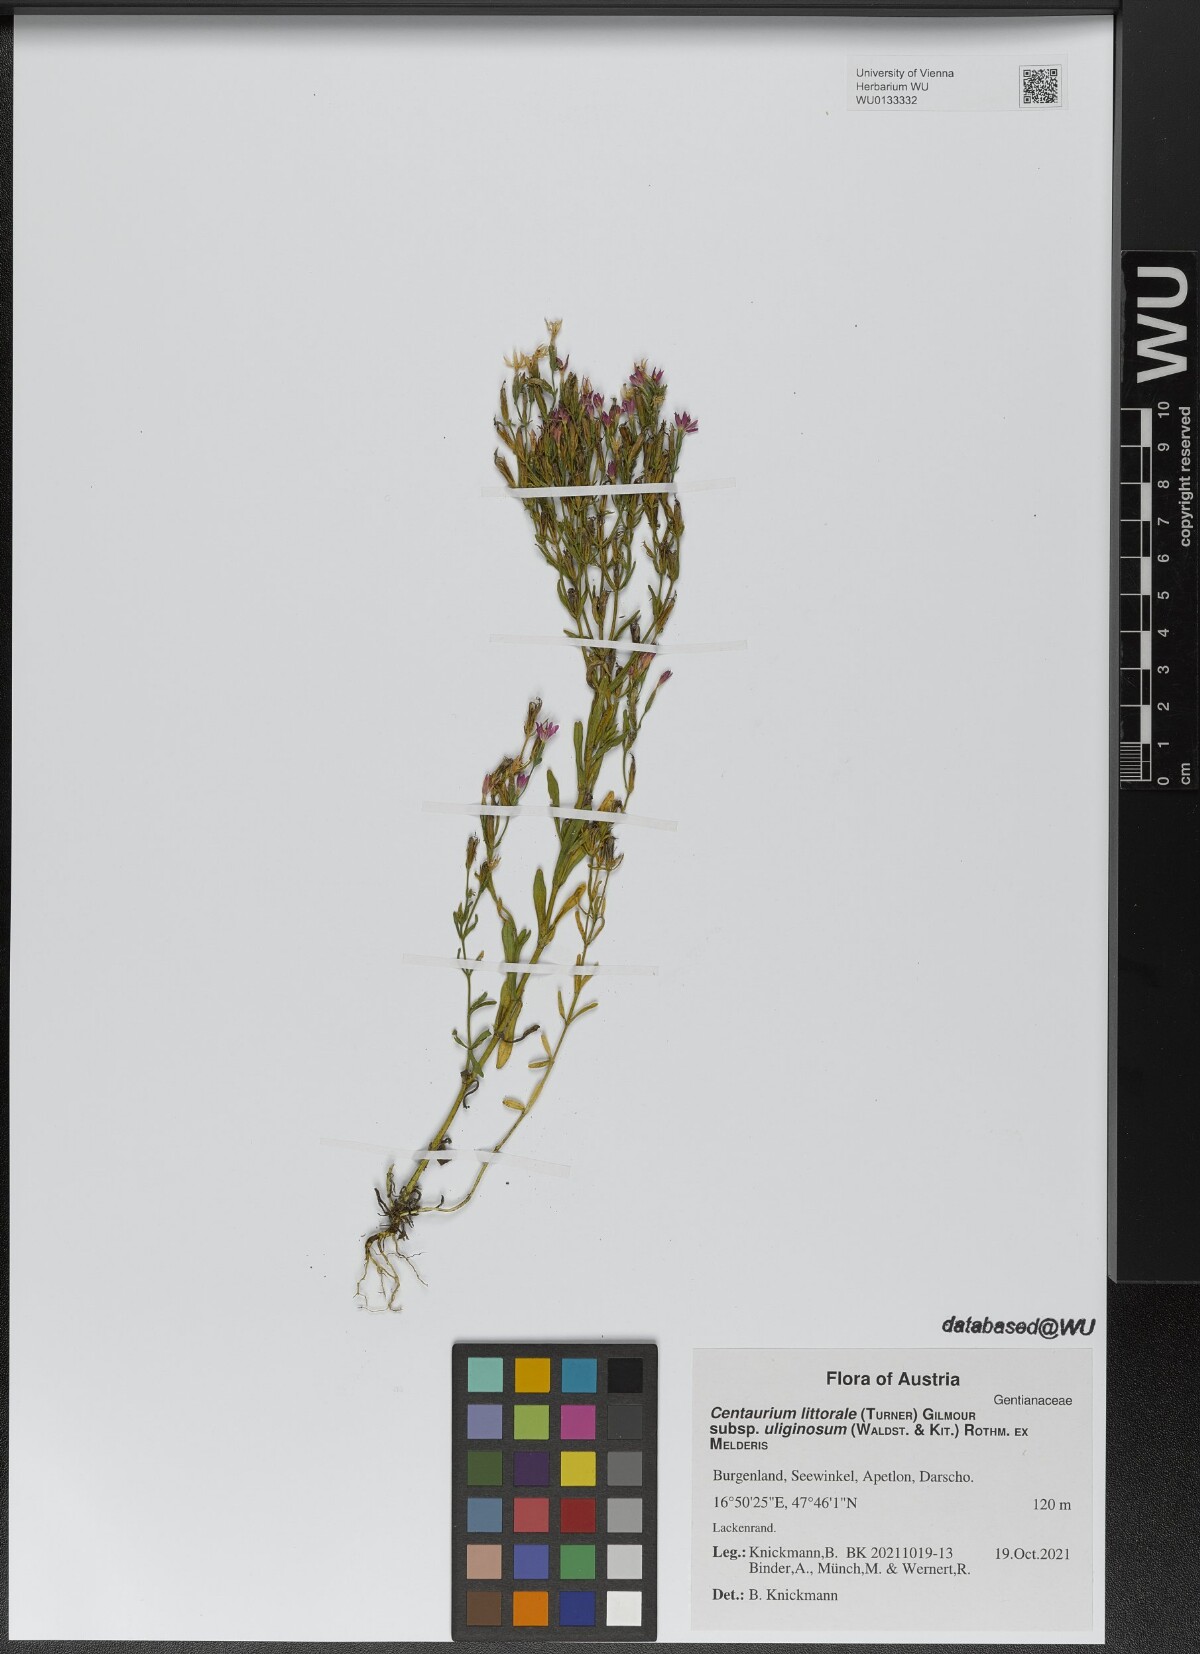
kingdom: Plantae
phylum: Tracheophyta
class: Magnoliopsida
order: Gentianales
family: Gentianaceae
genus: Centaurium
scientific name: Centaurium littorale
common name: Seaside centaury
